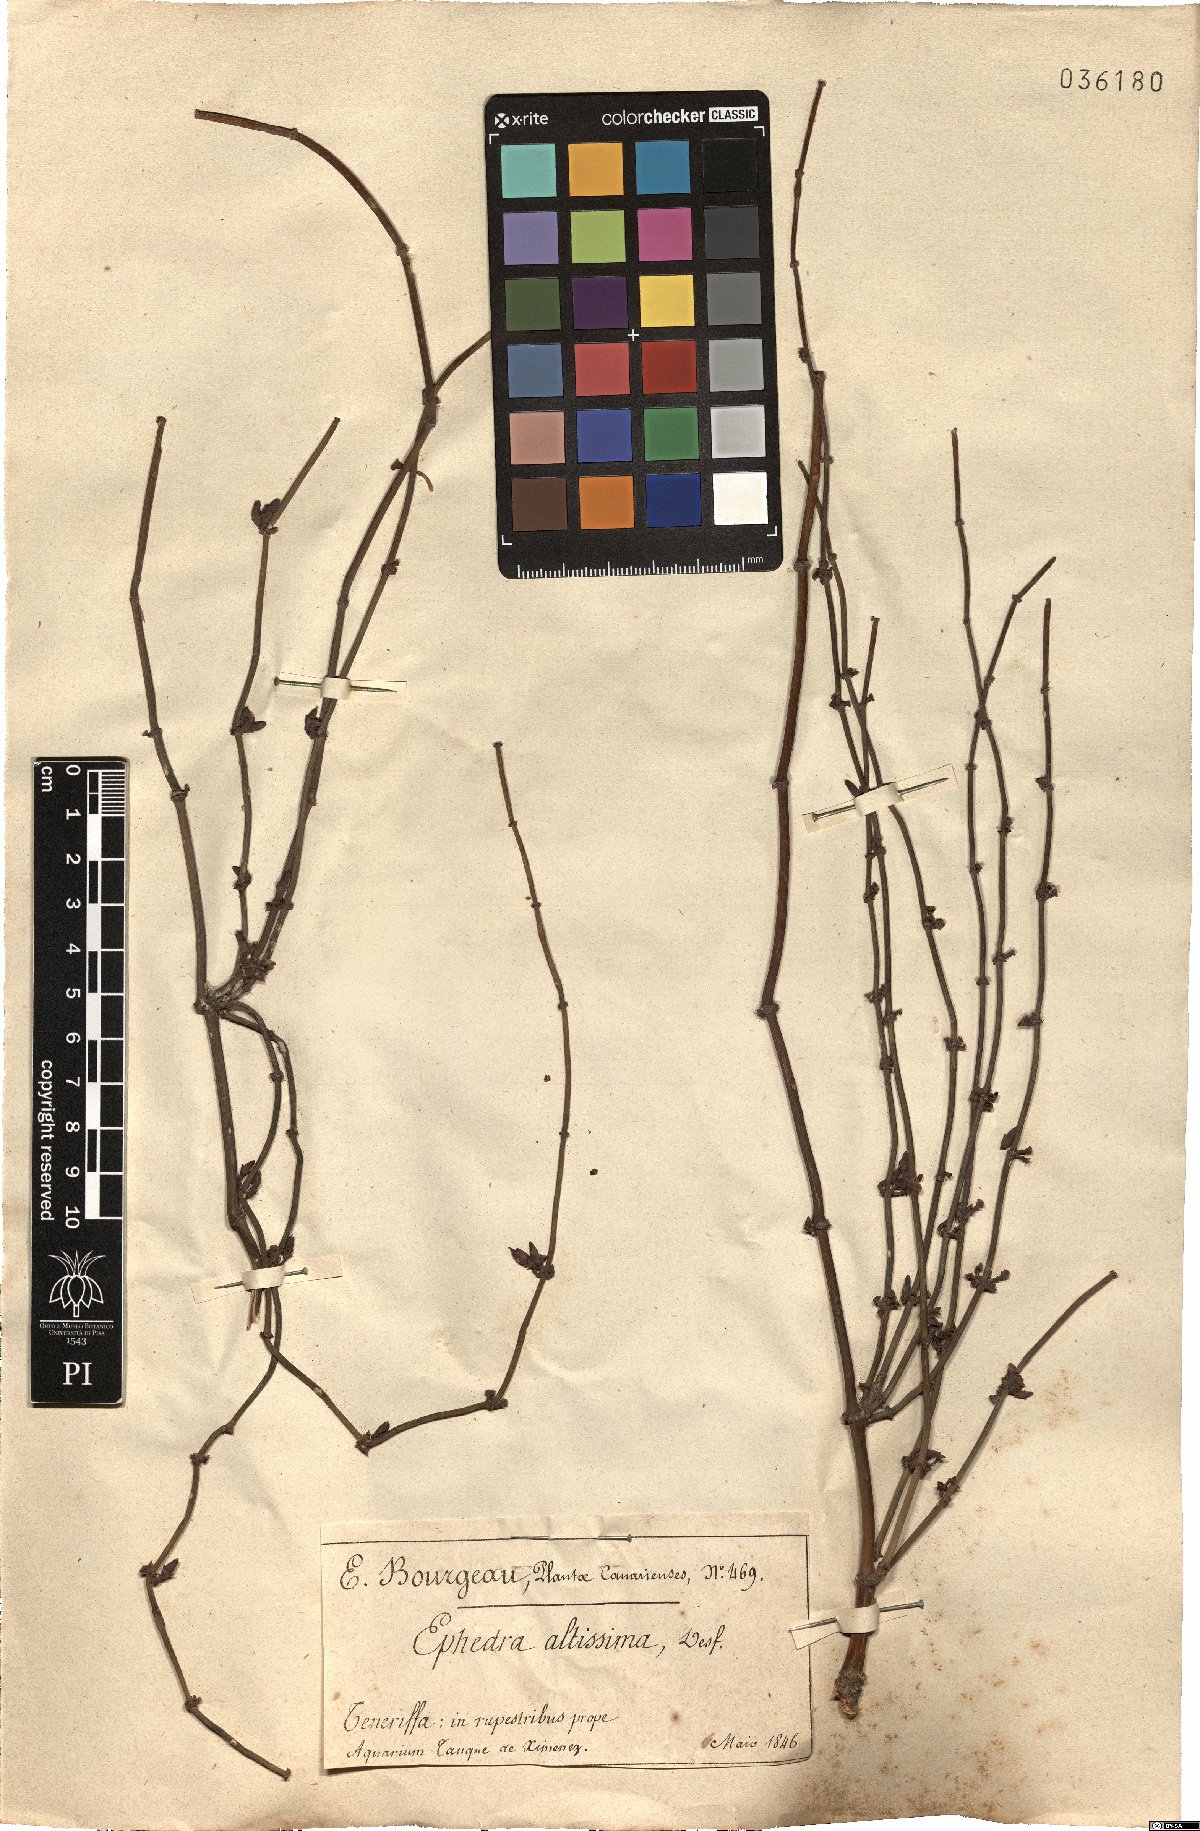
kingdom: Plantae
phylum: Tracheophyta
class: Gnetopsida
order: Ephedrales
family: Ephedraceae
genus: Ephedra
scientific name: Ephedra altissima
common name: High-climbing jointfir
